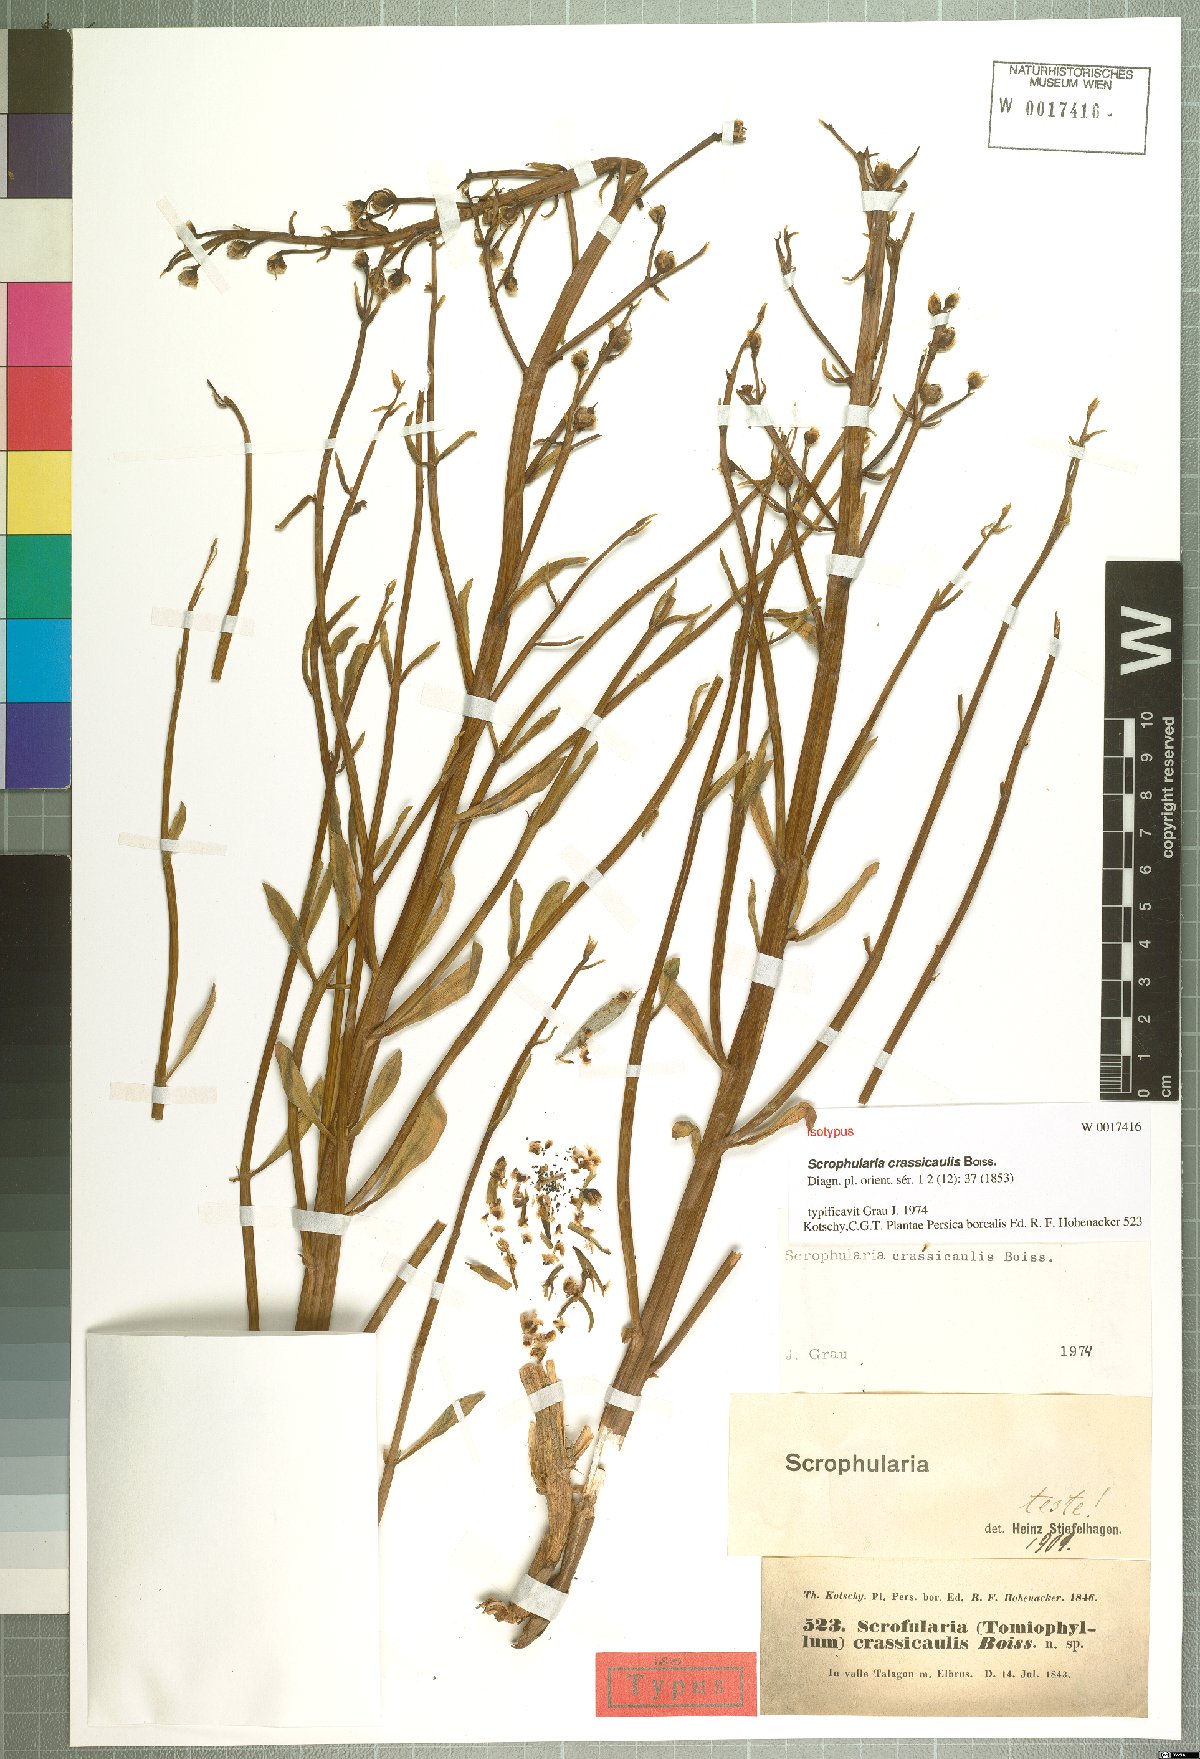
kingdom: Plantae
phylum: Tracheophyta
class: Magnoliopsida
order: Lamiales
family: Scrophulariaceae
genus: Scrophularia
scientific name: Scrophularia crassicaulis
